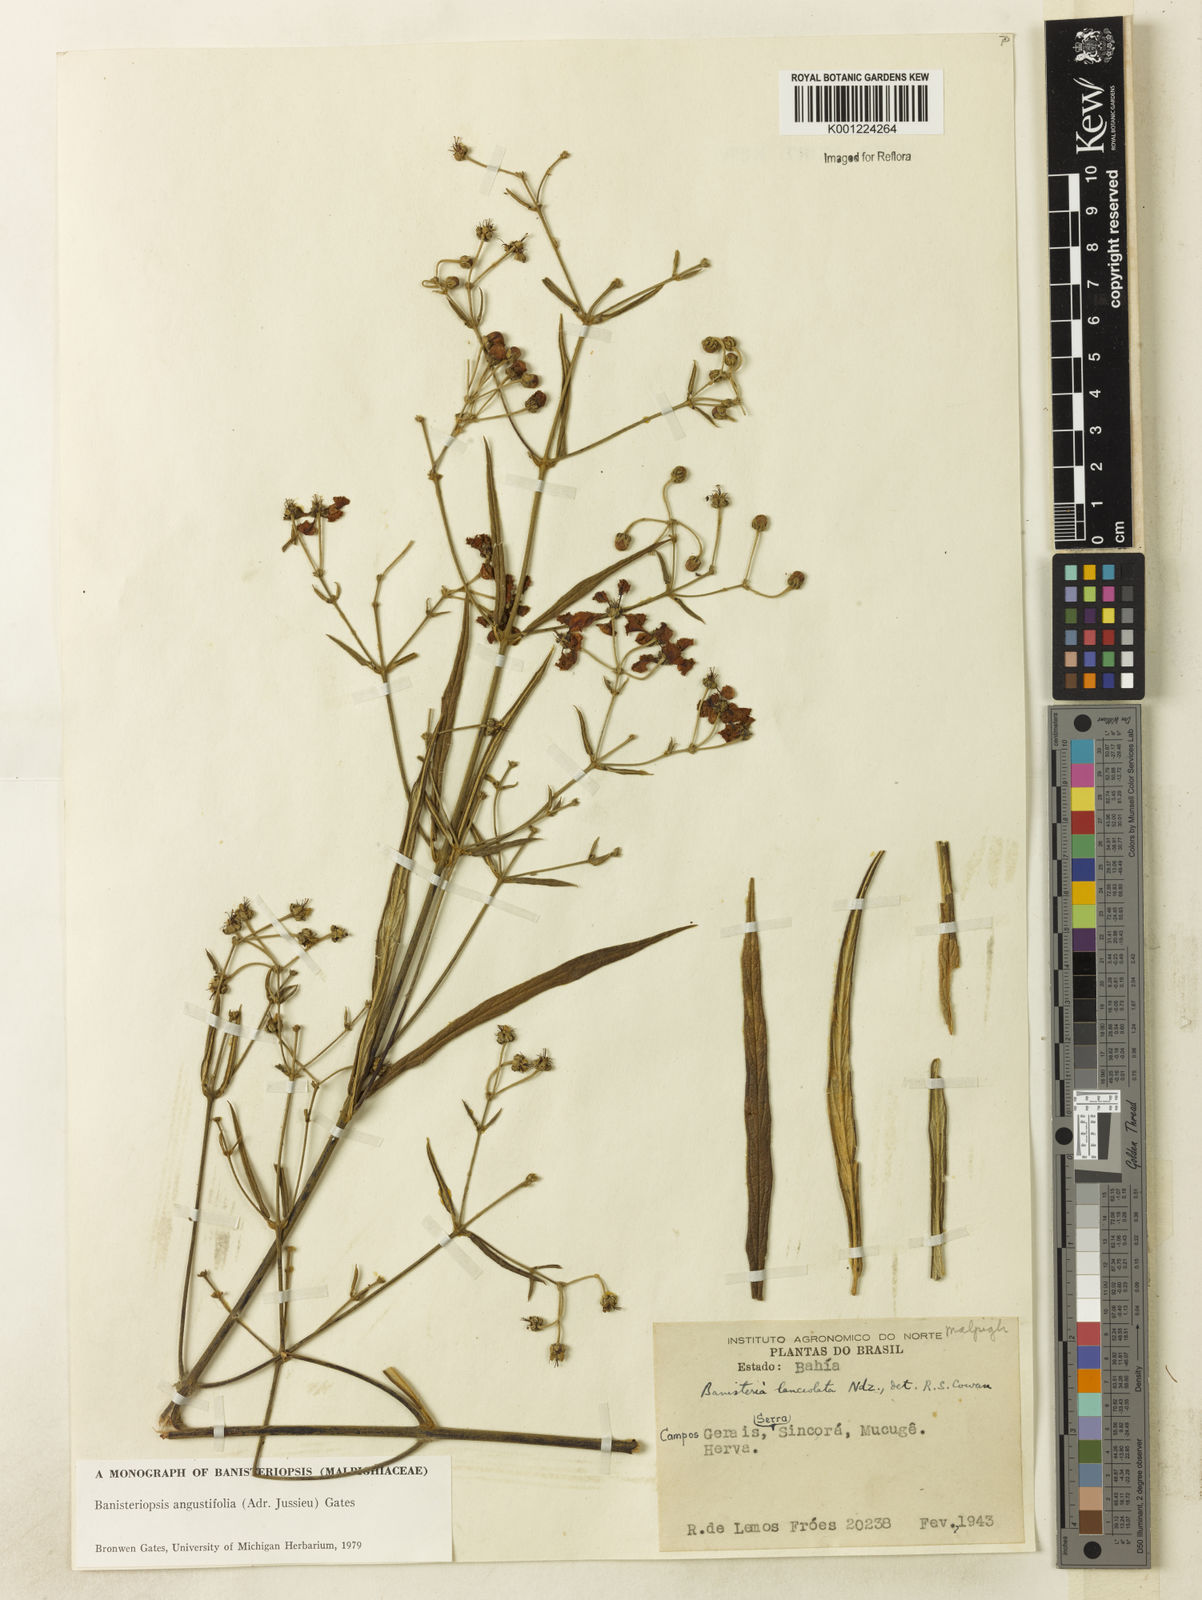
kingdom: Plantae
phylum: Tracheophyta
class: Magnoliopsida
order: Malpighiales
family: Malpighiaceae
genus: Banisteriopsis
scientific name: Banisteriopsis angustifolia
